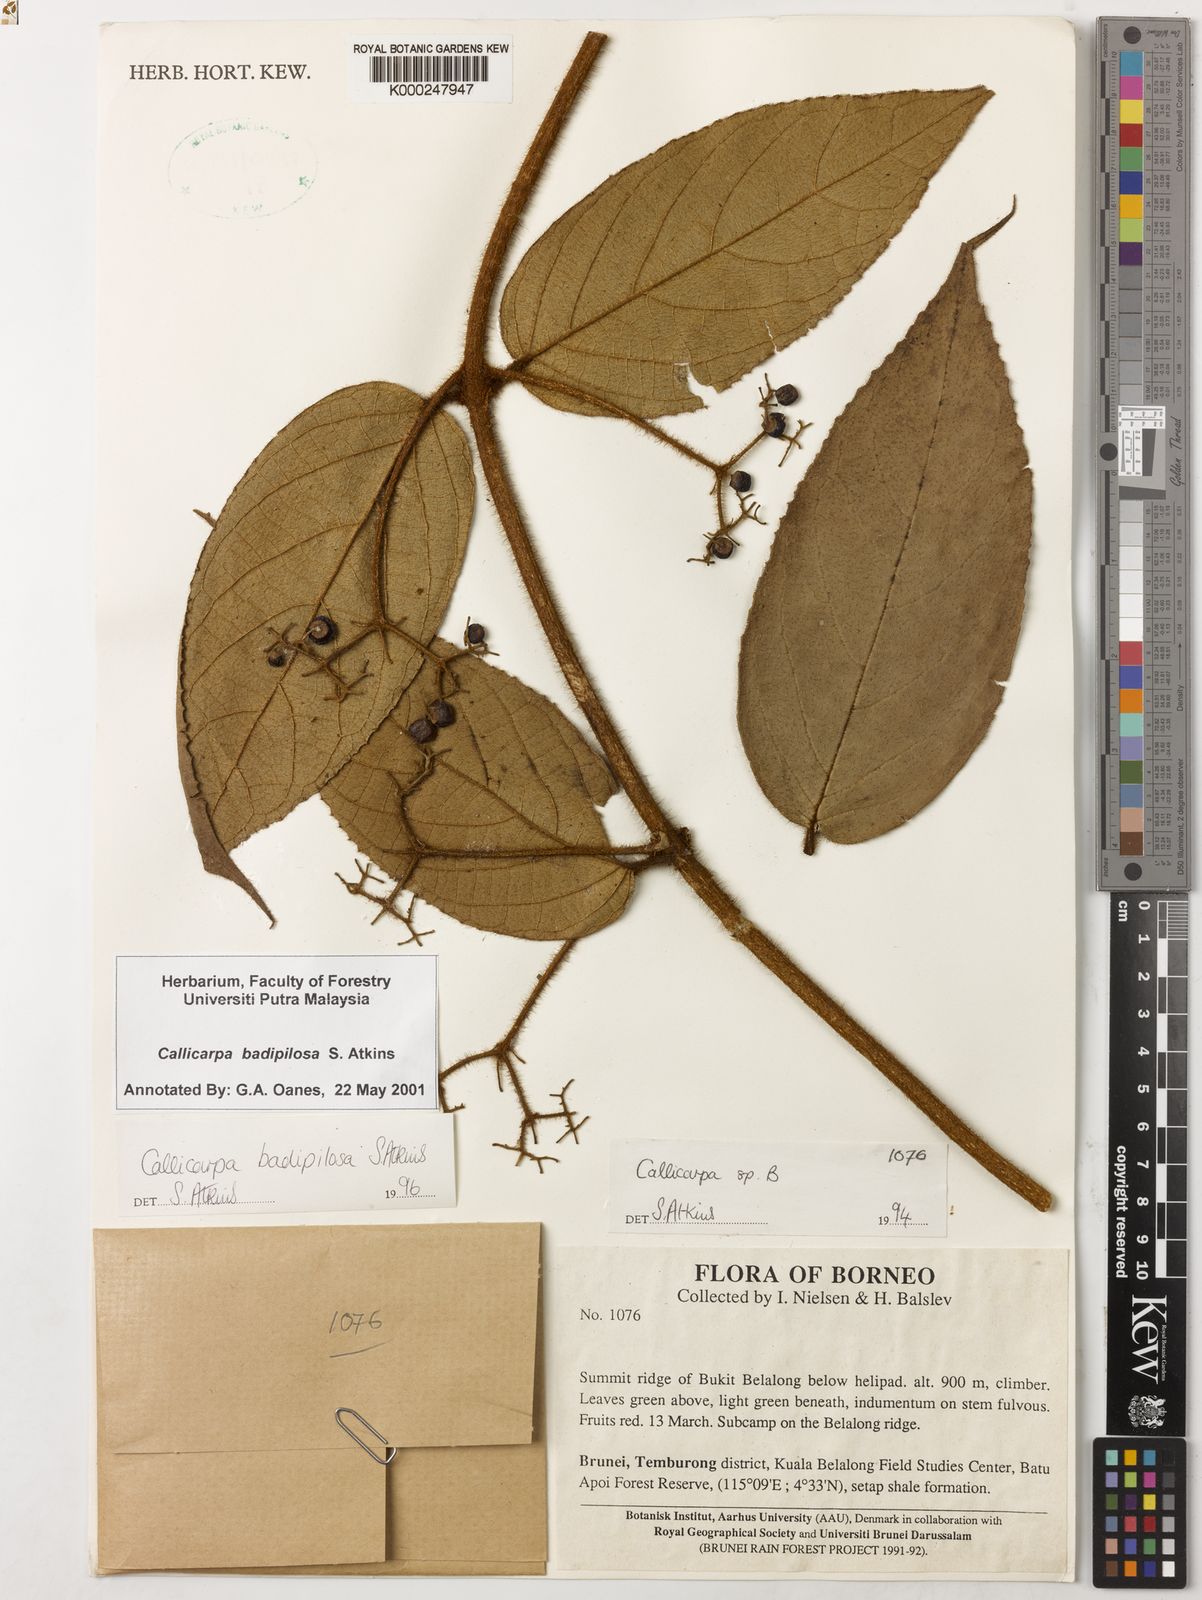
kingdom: Plantae
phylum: Tracheophyta
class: Magnoliopsida
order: Lamiales
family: Lamiaceae
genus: Callicarpa
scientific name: Callicarpa badipilosa
